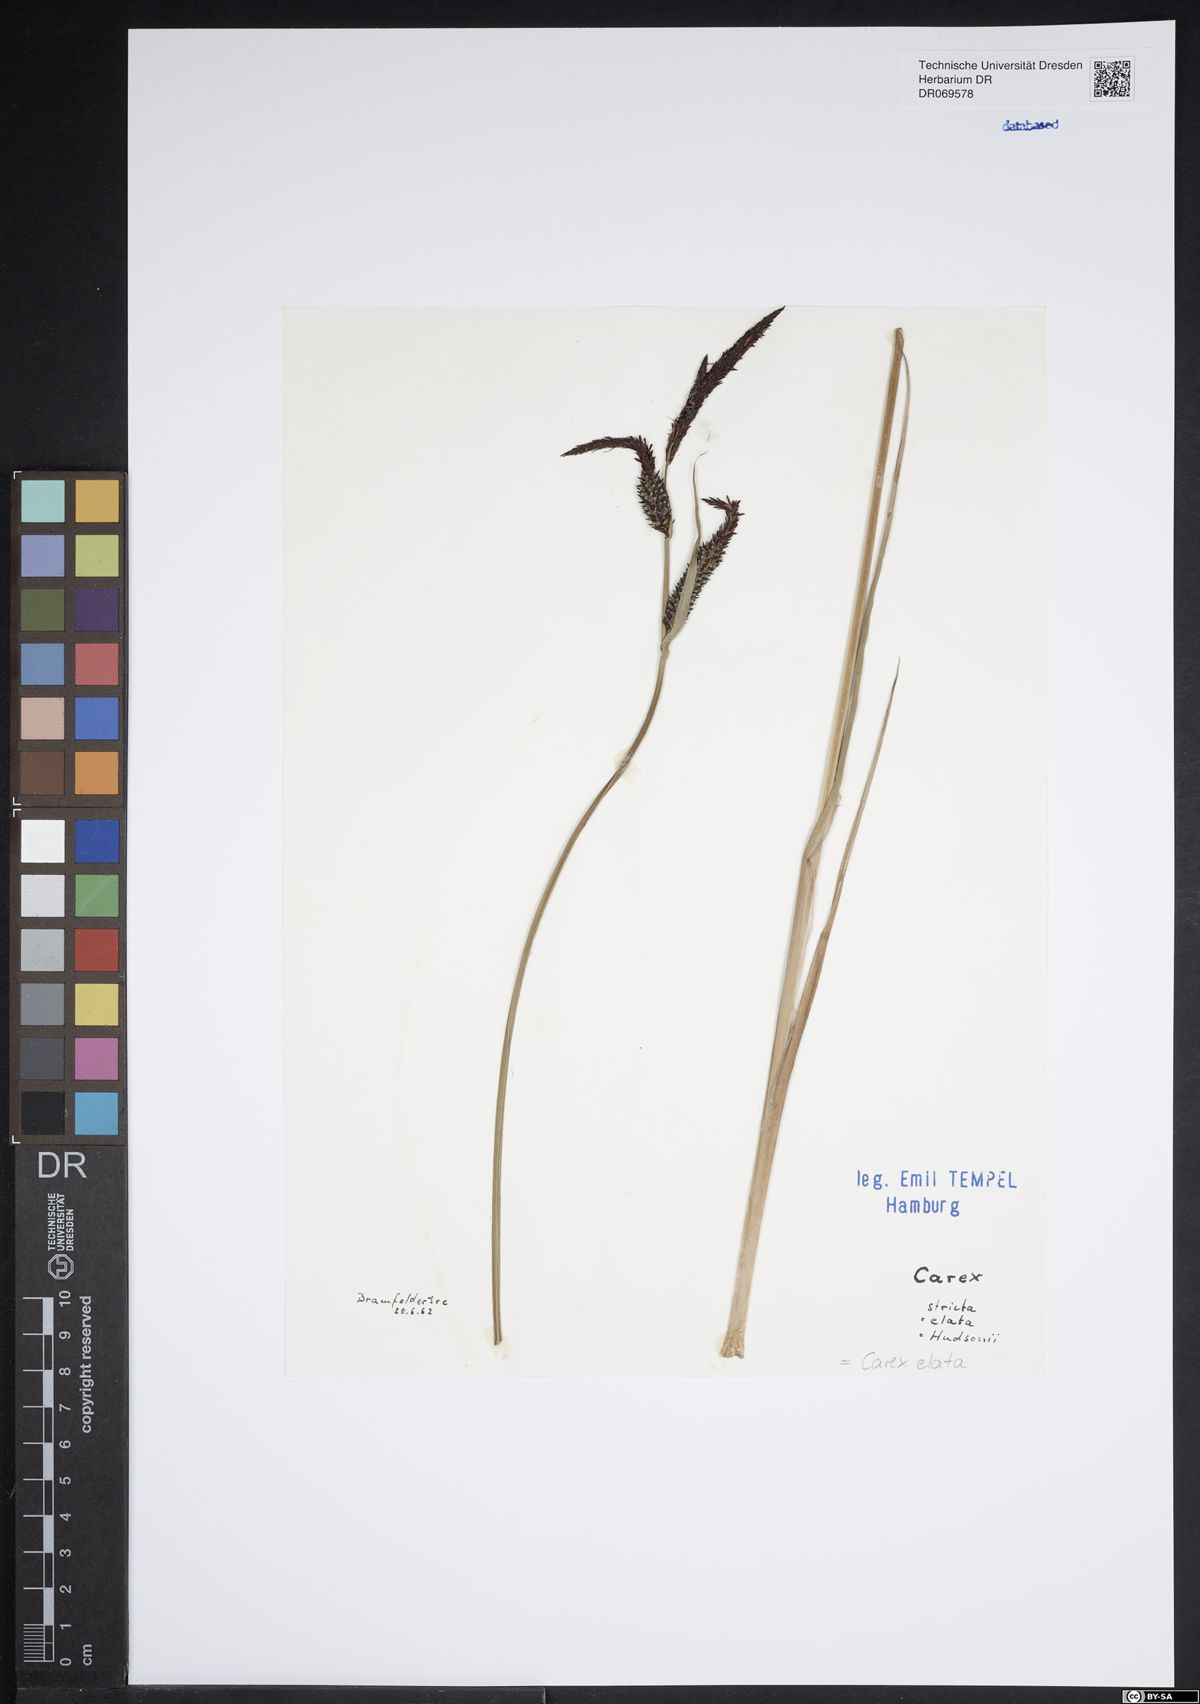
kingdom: Plantae
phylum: Tracheophyta
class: Liliopsida
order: Poales
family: Cyperaceae
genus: Carex
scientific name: Carex elata
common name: Tufted sedge
